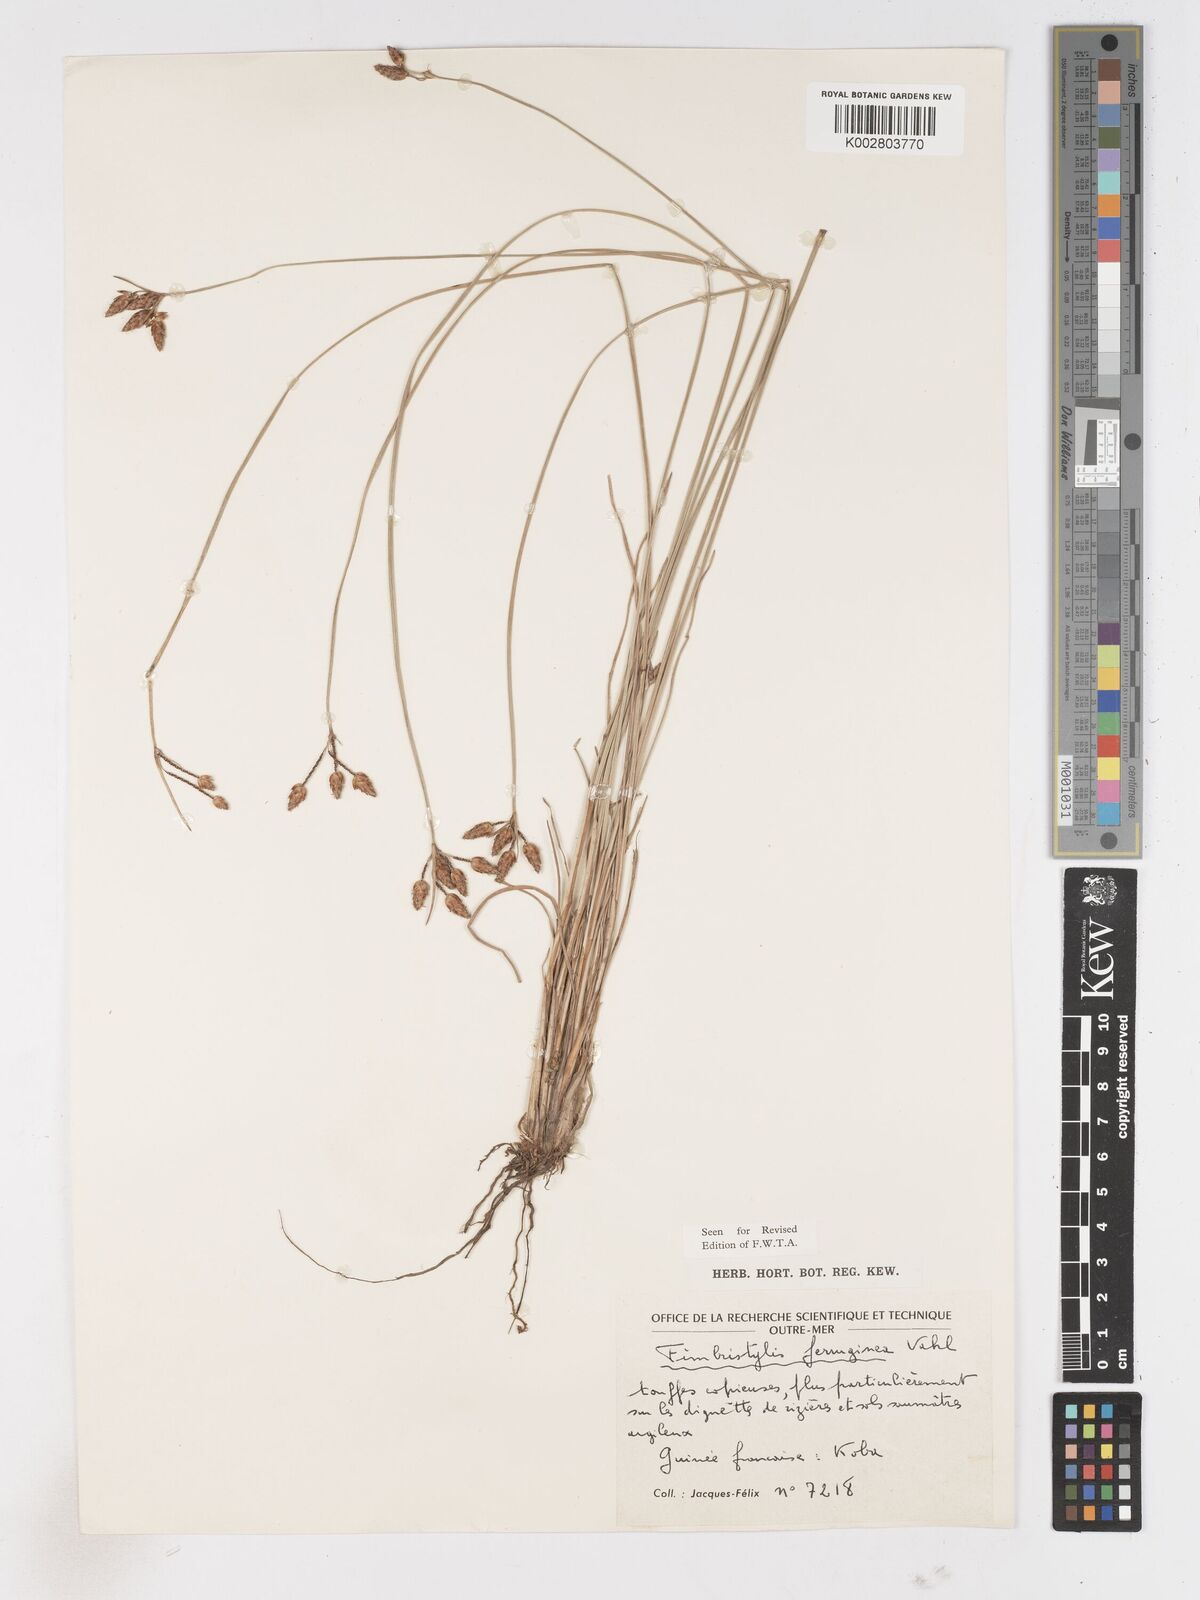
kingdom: Plantae
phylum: Tracheophyta
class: Liliopsida
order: Poales
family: Cyperaceae
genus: Fimbristylis
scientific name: Fimbristylis ferruginea
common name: West indian fimbry
